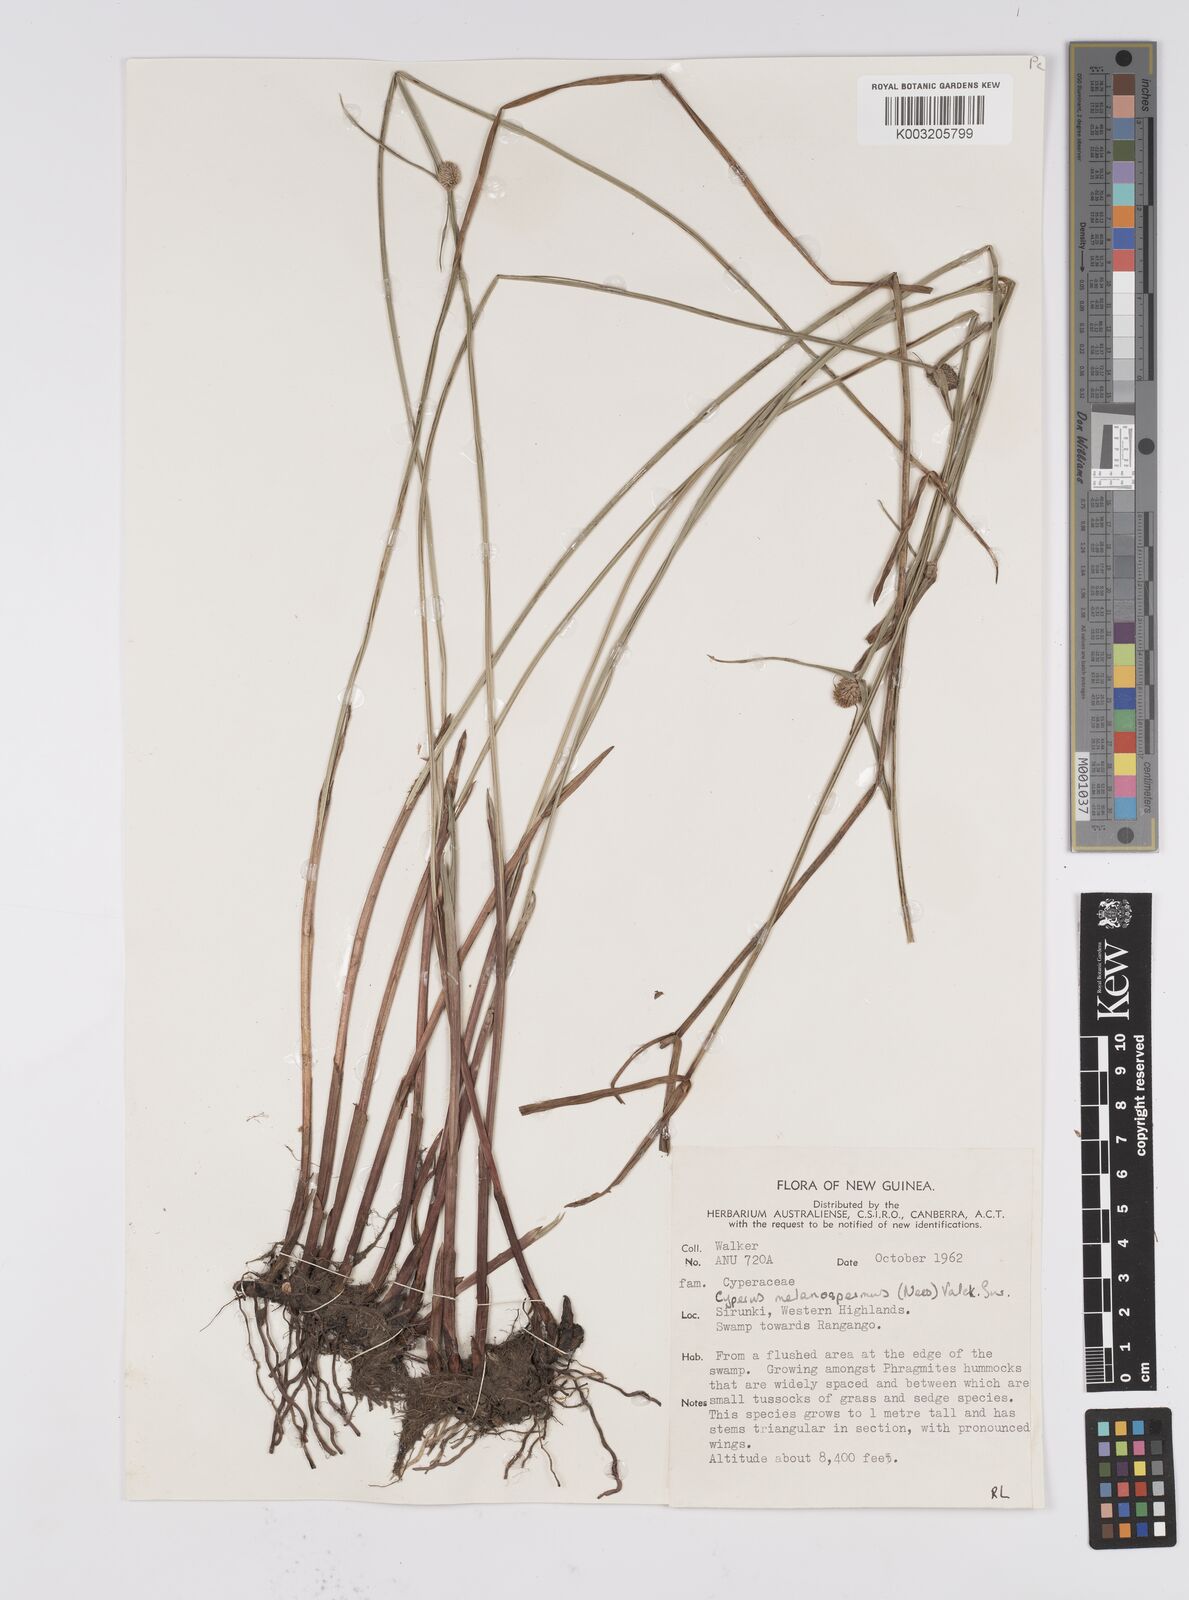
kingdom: Plantae
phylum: Tracheophyta
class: Liliopsida
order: Poales
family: Cyperaceae
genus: Cyperus
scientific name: Cyperus melanospermus
